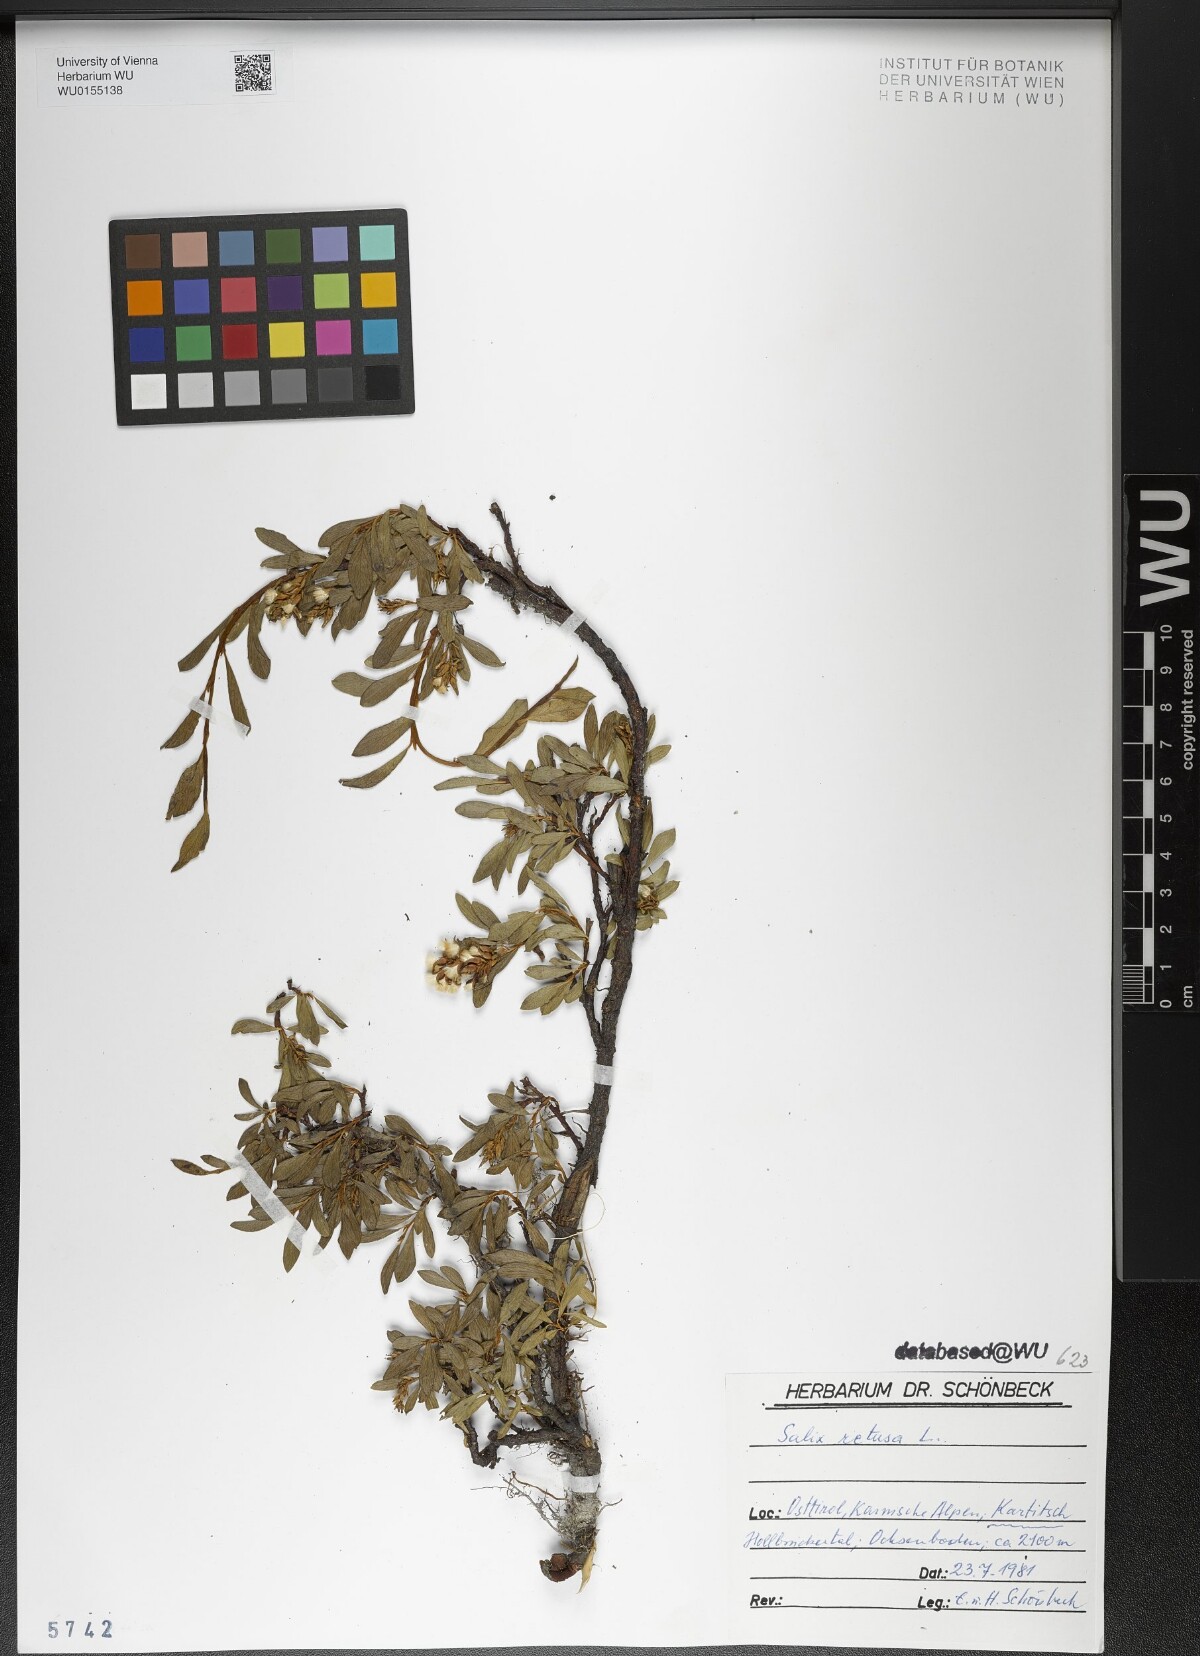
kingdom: Plantae
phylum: Tracheophyta
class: Magnoliopsida
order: Malpighiales
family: Salicaceae
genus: Salix
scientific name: Salix retusa
